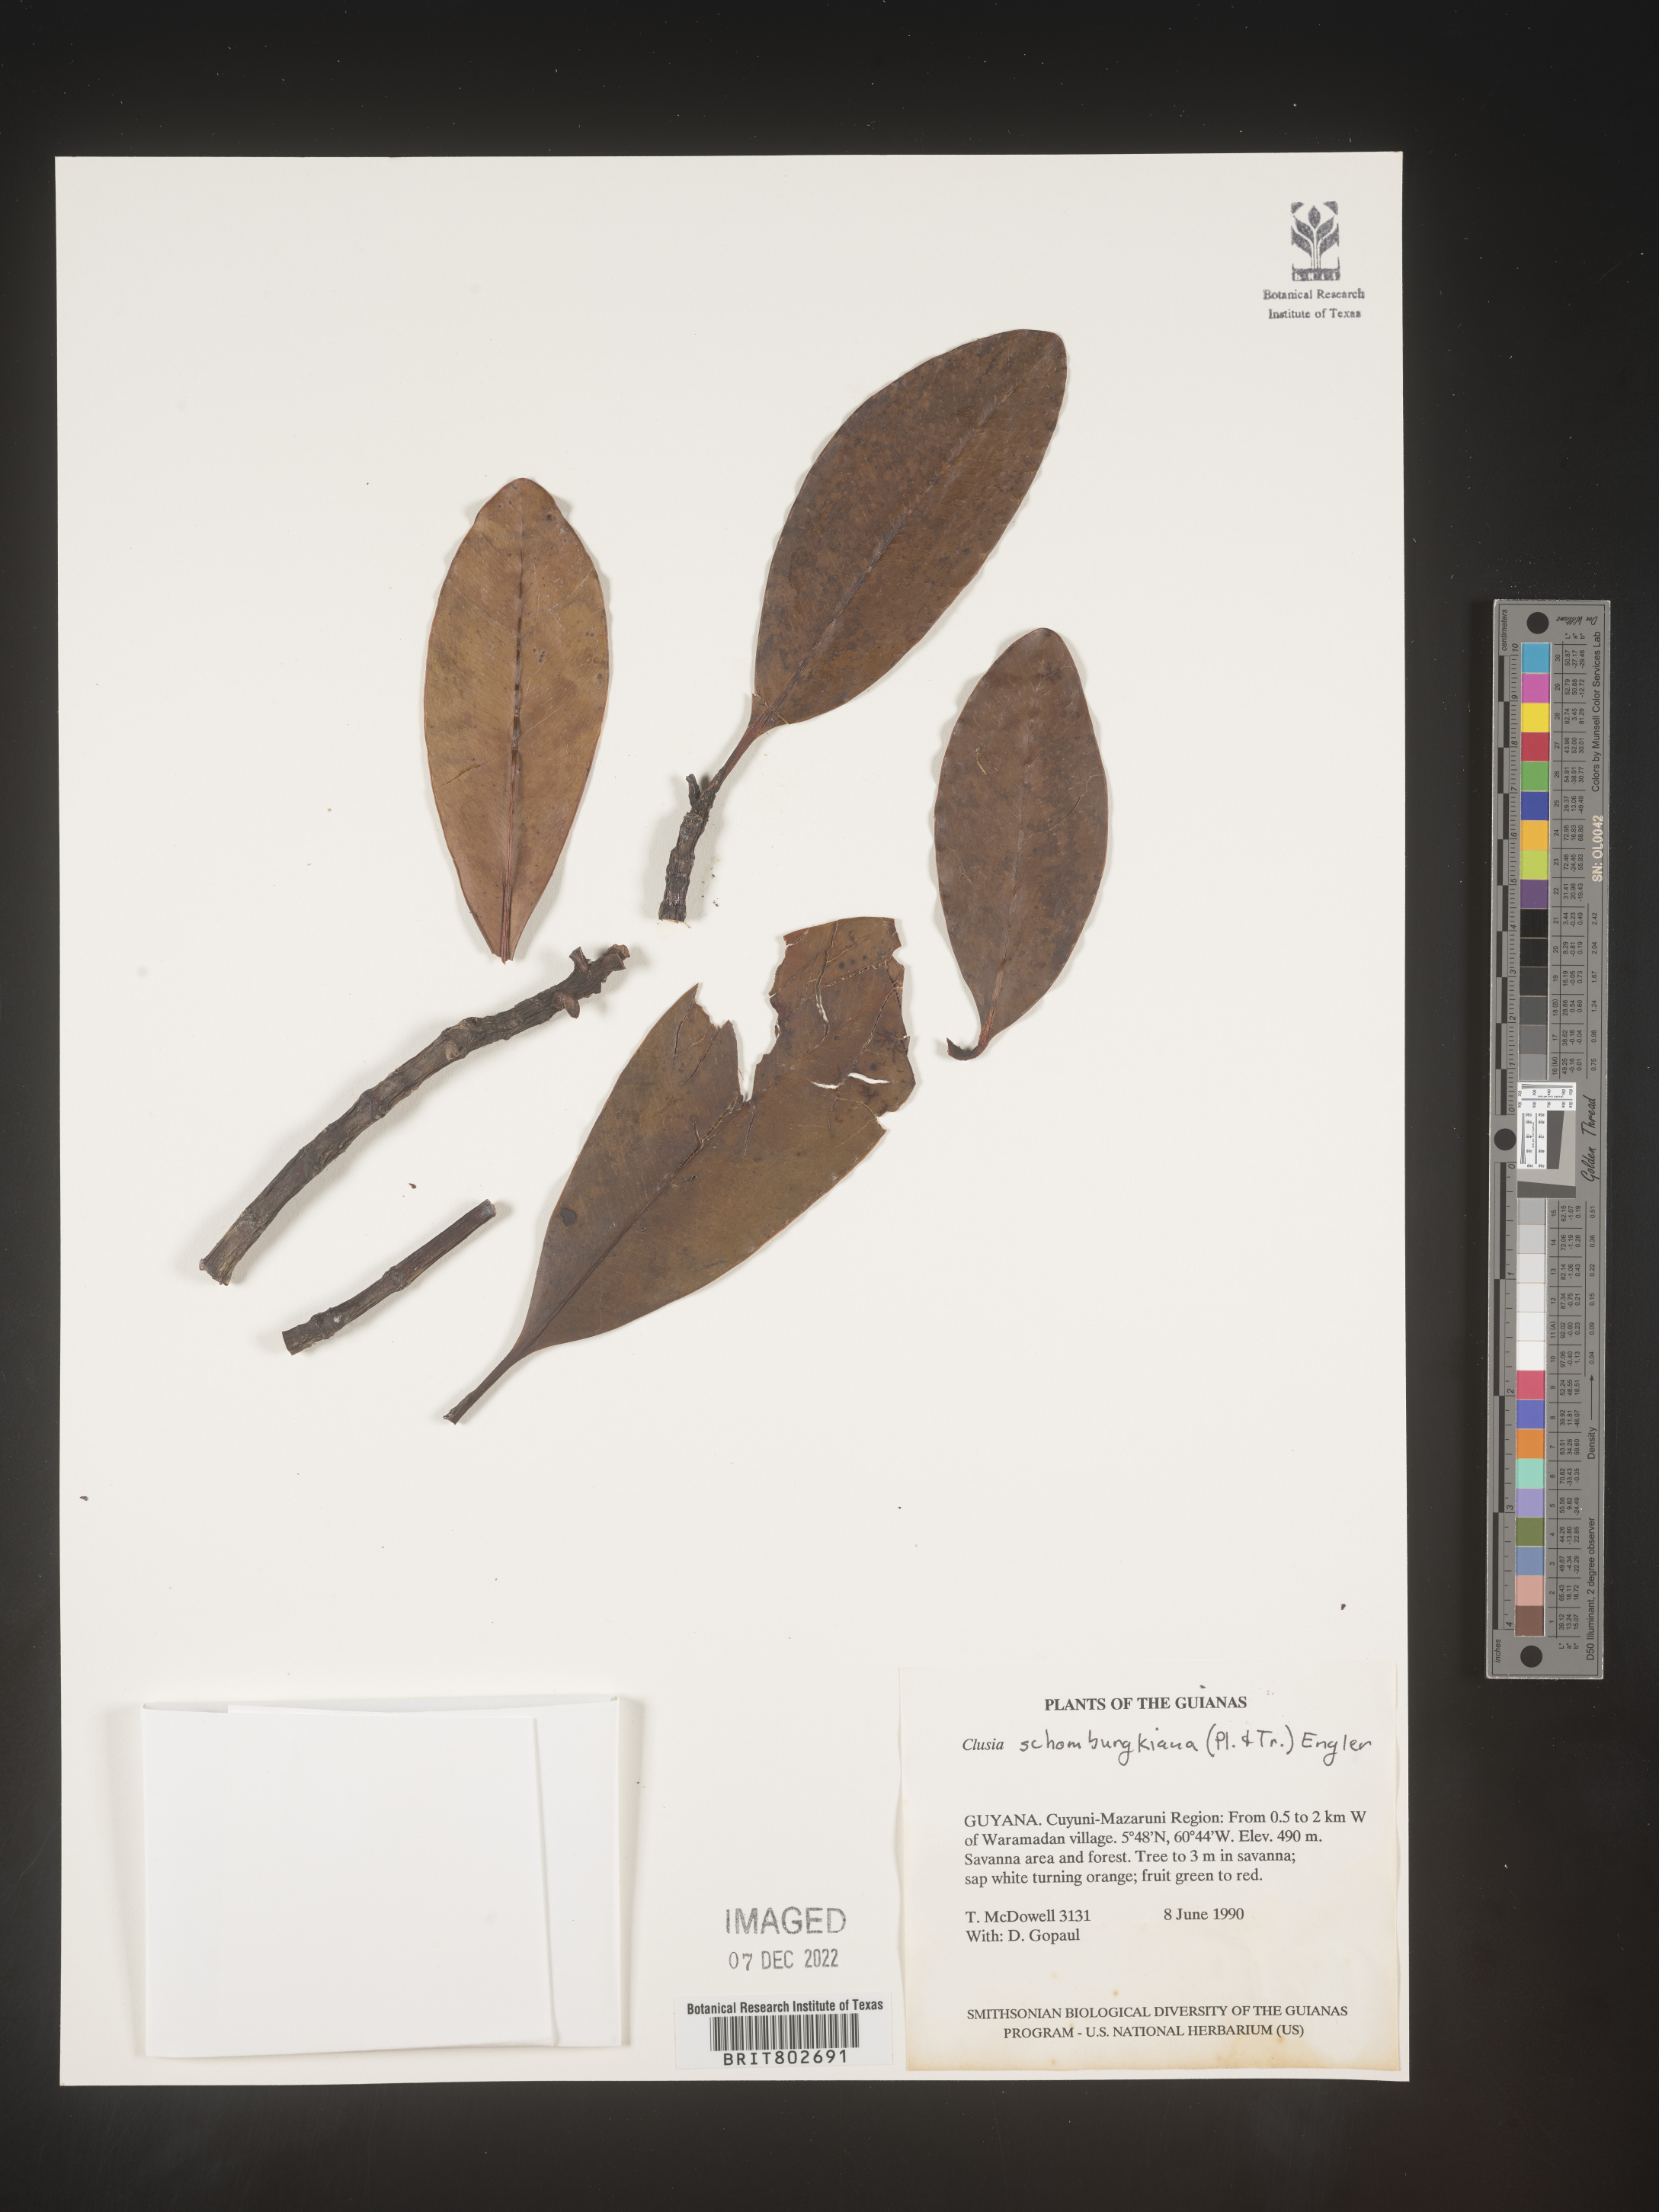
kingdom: Plantae
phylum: Tracheophyta
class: Magnoliopsida
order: Malpighiales
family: Clusiaceae
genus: Clusia
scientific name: Clusia schomburgkiana
